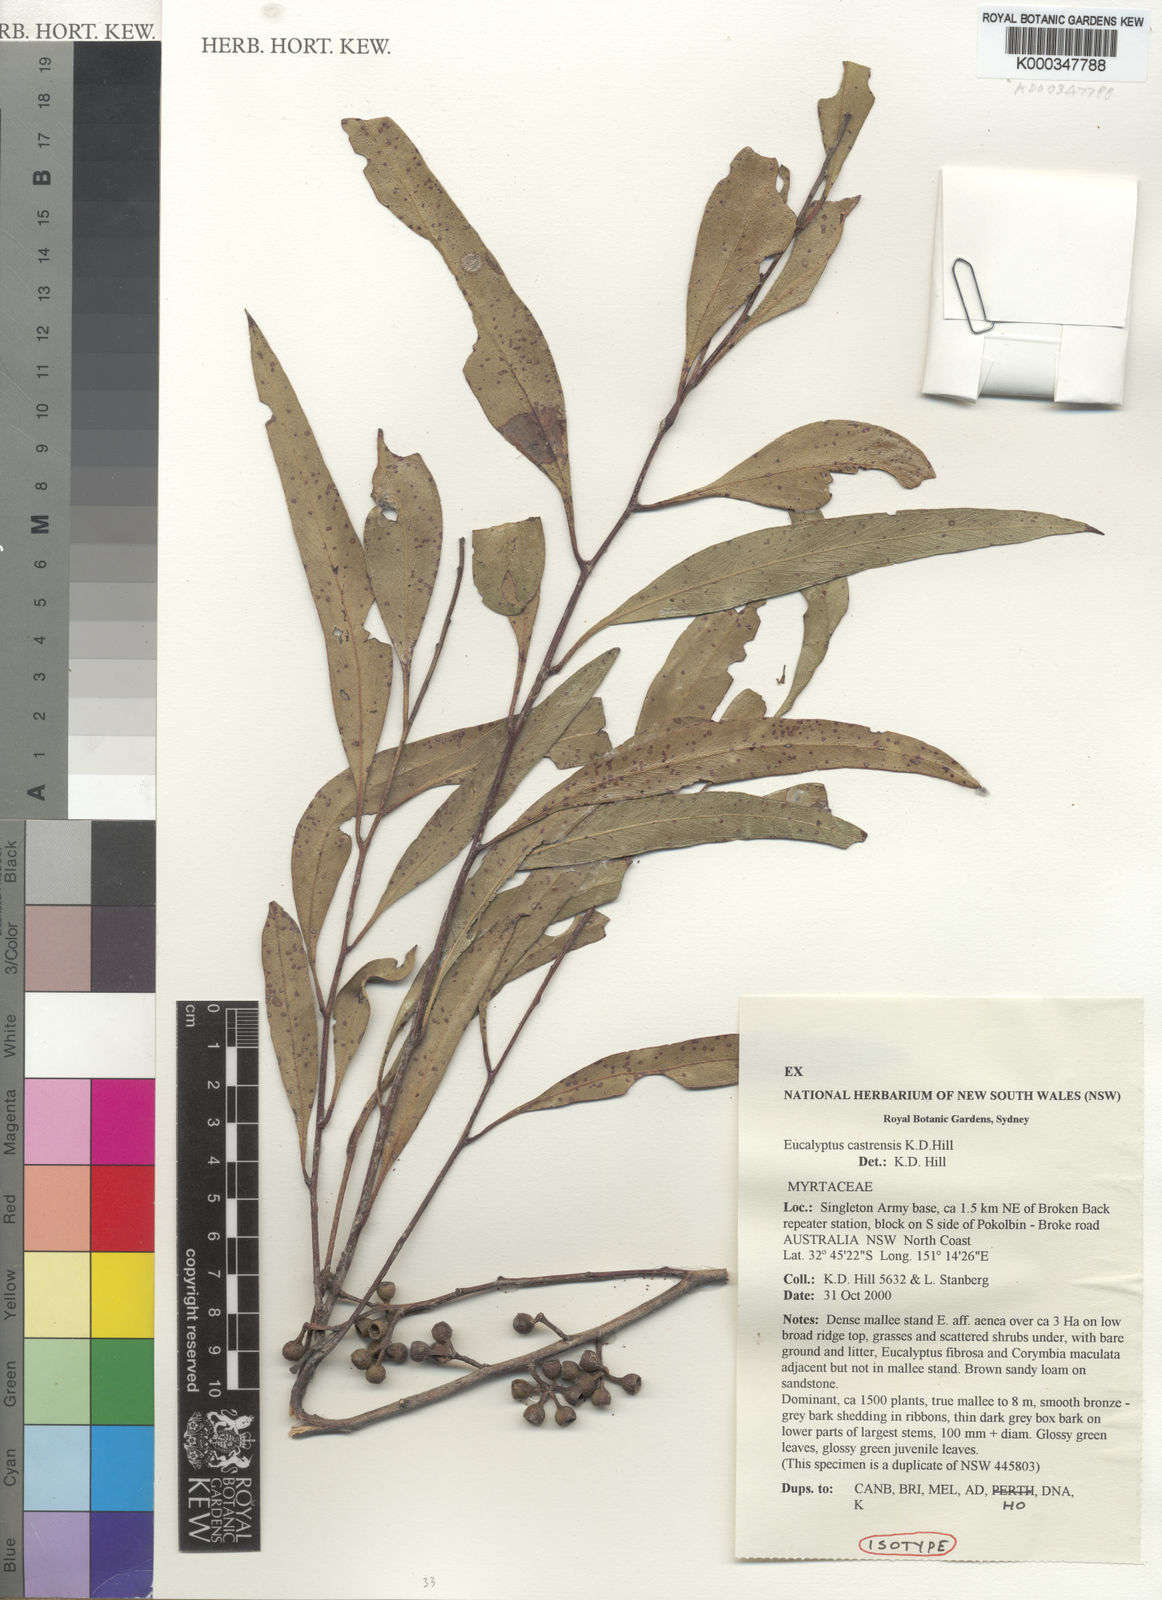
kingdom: Plantae
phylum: Tracheophyta
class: Magnoliopsida
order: Myrtales
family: Myrtaceae
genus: Eucalyptus
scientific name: Eucalyptus castrensis
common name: Singleton mallee
